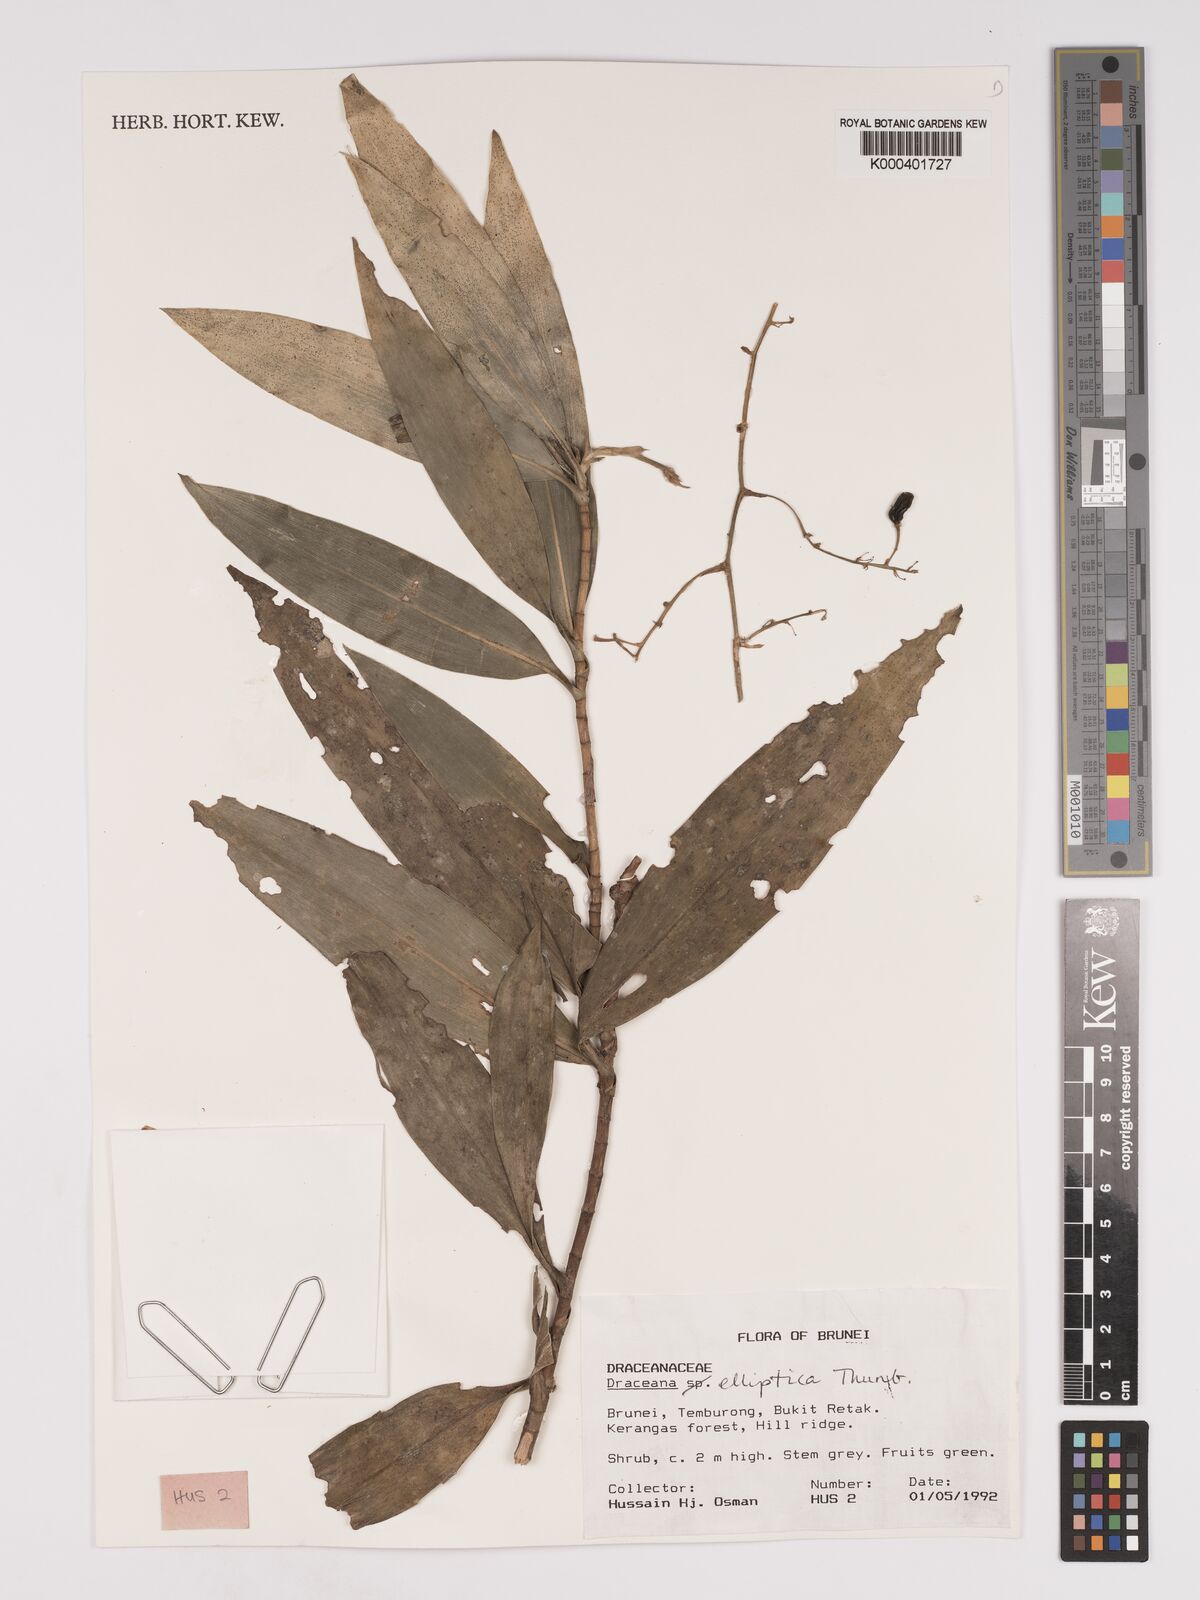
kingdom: Plantae
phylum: Tracheophyta
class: Liliopsida
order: Asparagales
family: Asparagaceae
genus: Dracaena
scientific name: Dracaena elliptica
